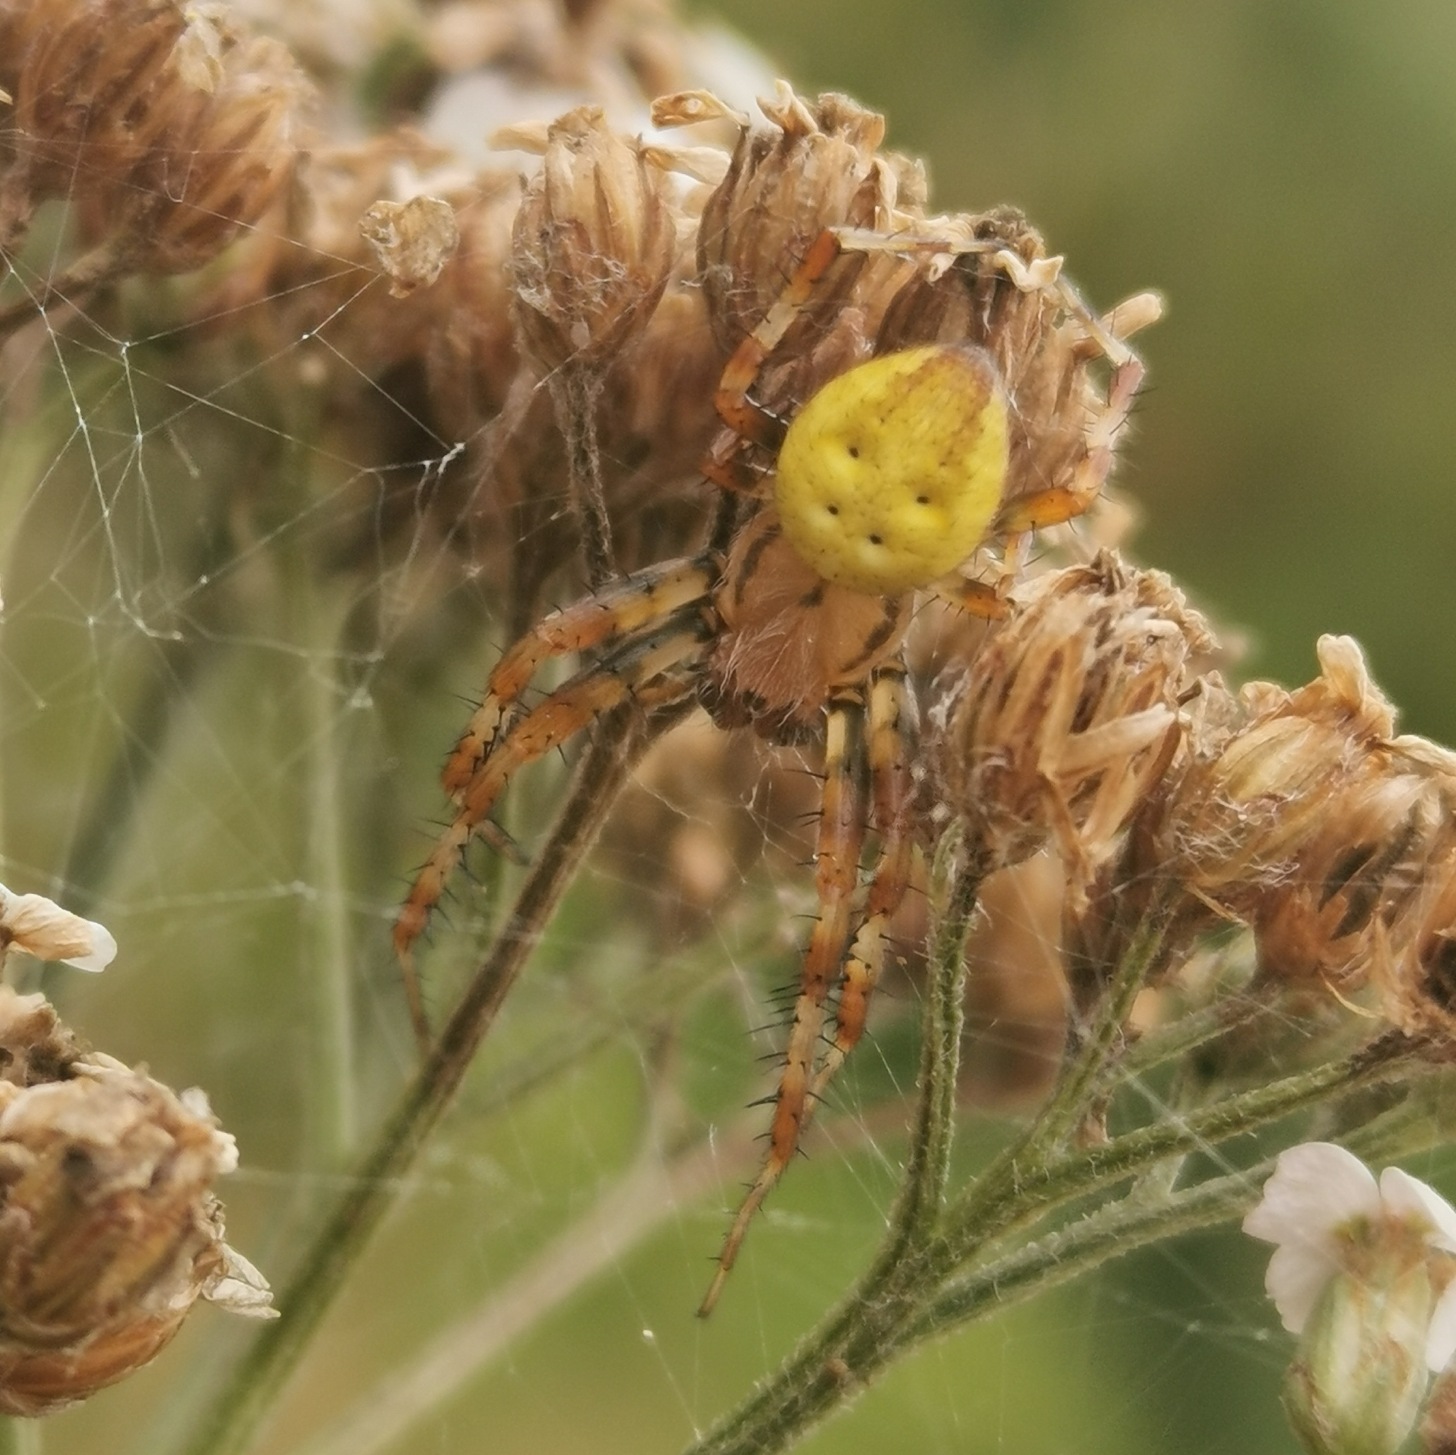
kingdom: Animalia
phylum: Arthropoda
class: Arachnida
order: Araneae
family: Araneidae
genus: Araneus
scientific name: Araneus quadratus
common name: Kvadratedderkop
